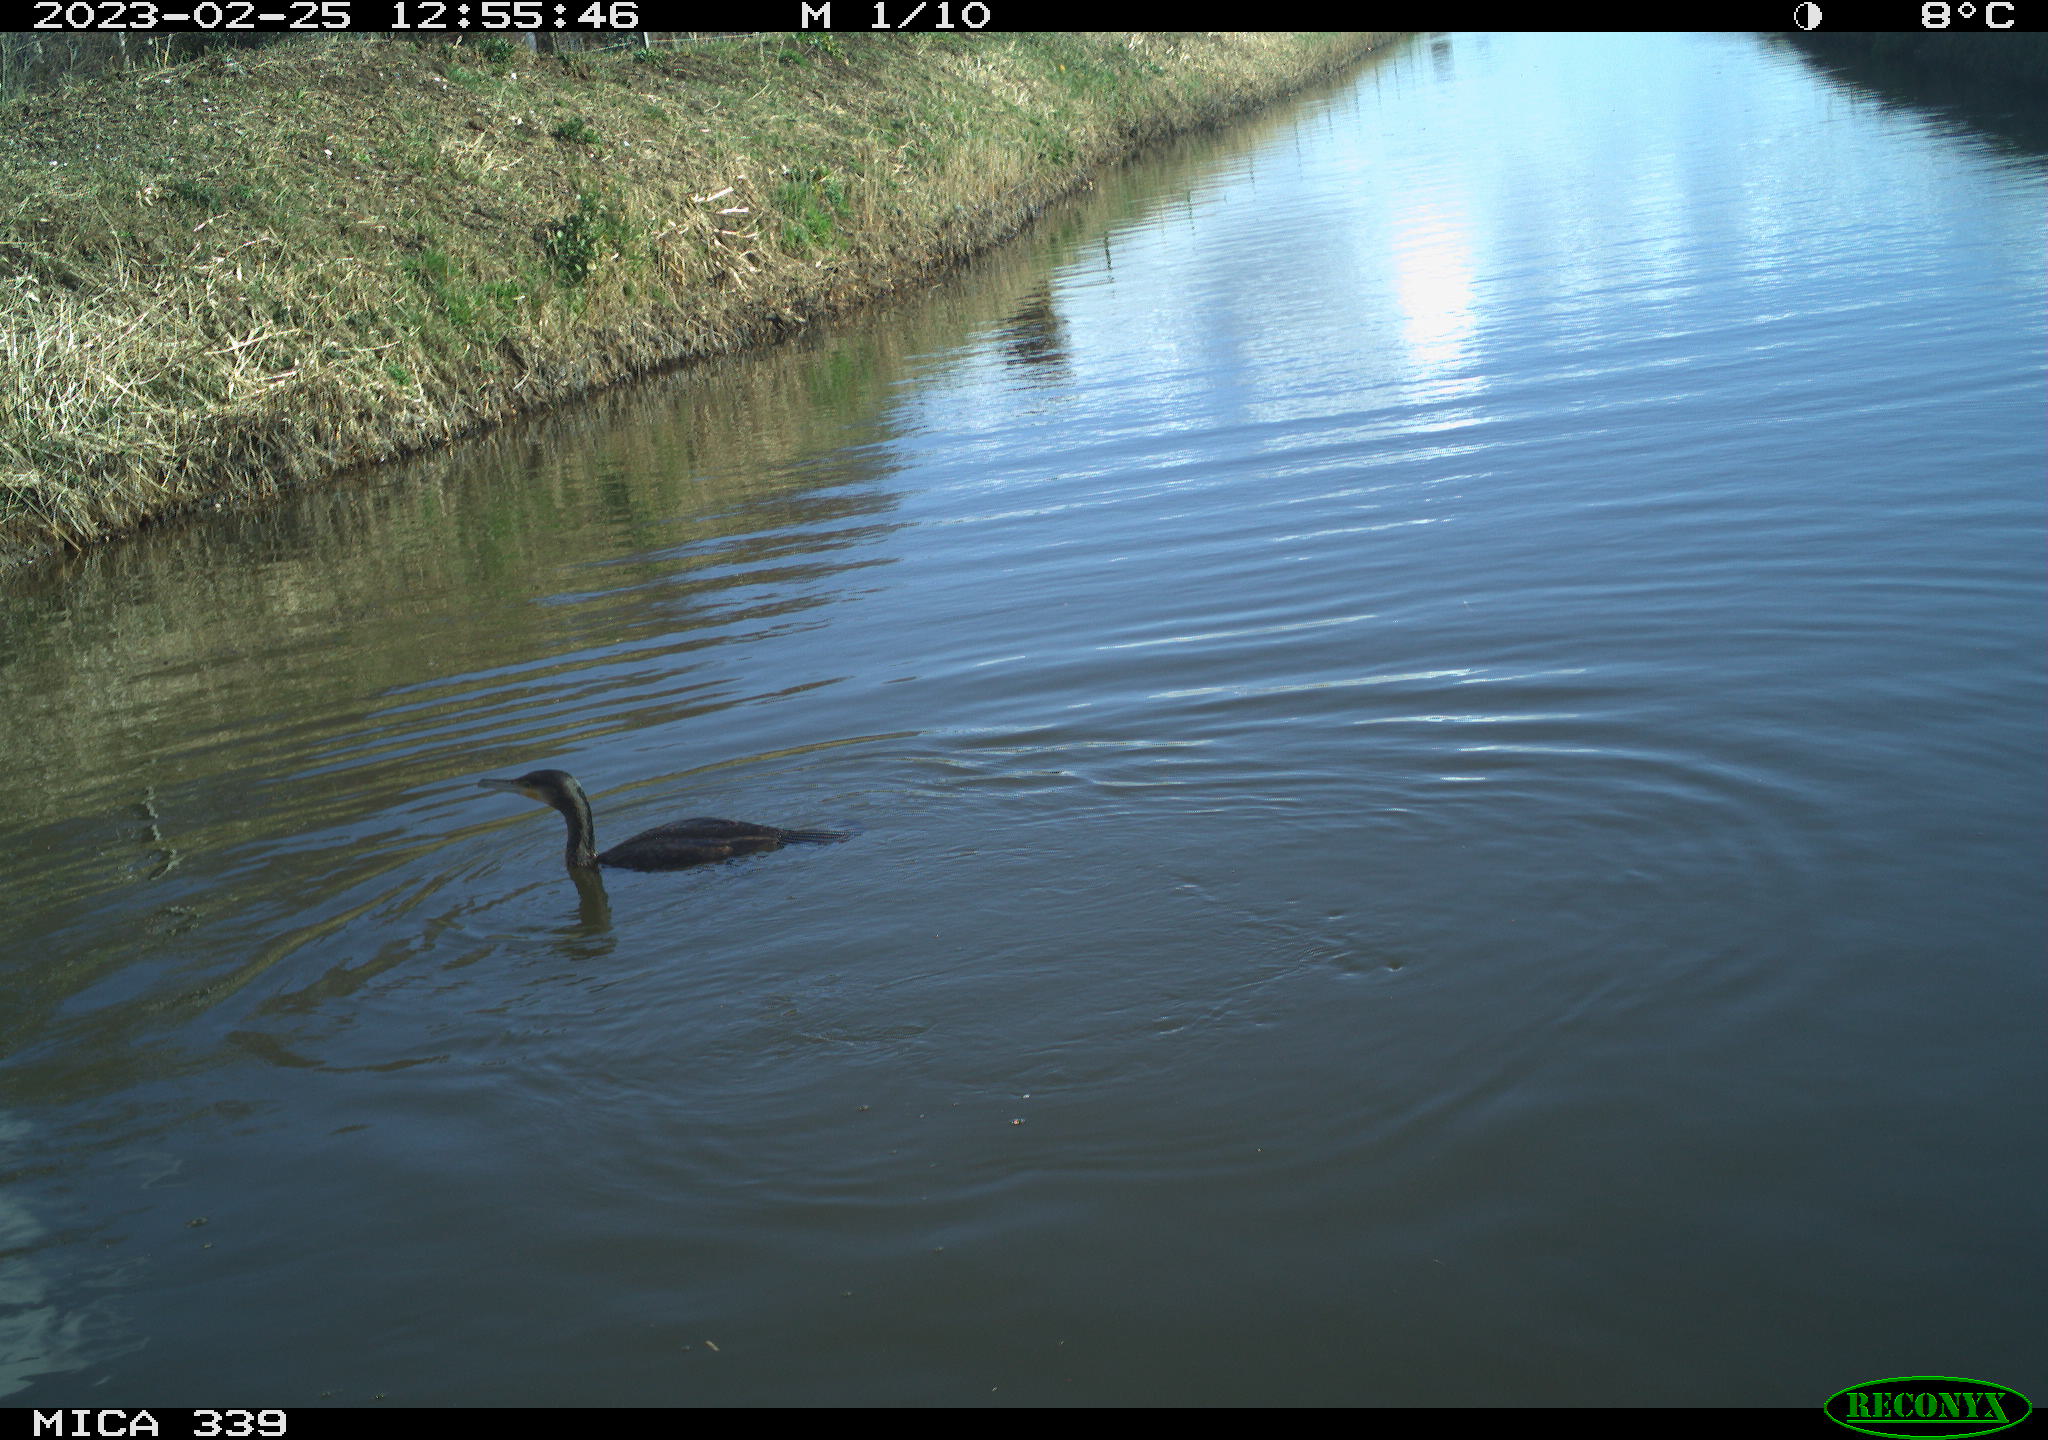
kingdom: Animalia
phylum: Chordata
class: Aves
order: Suliformes
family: Phalacrocoracidae
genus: Phalacrocorax
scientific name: Phalacrocorax carbo
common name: Great cormorant
